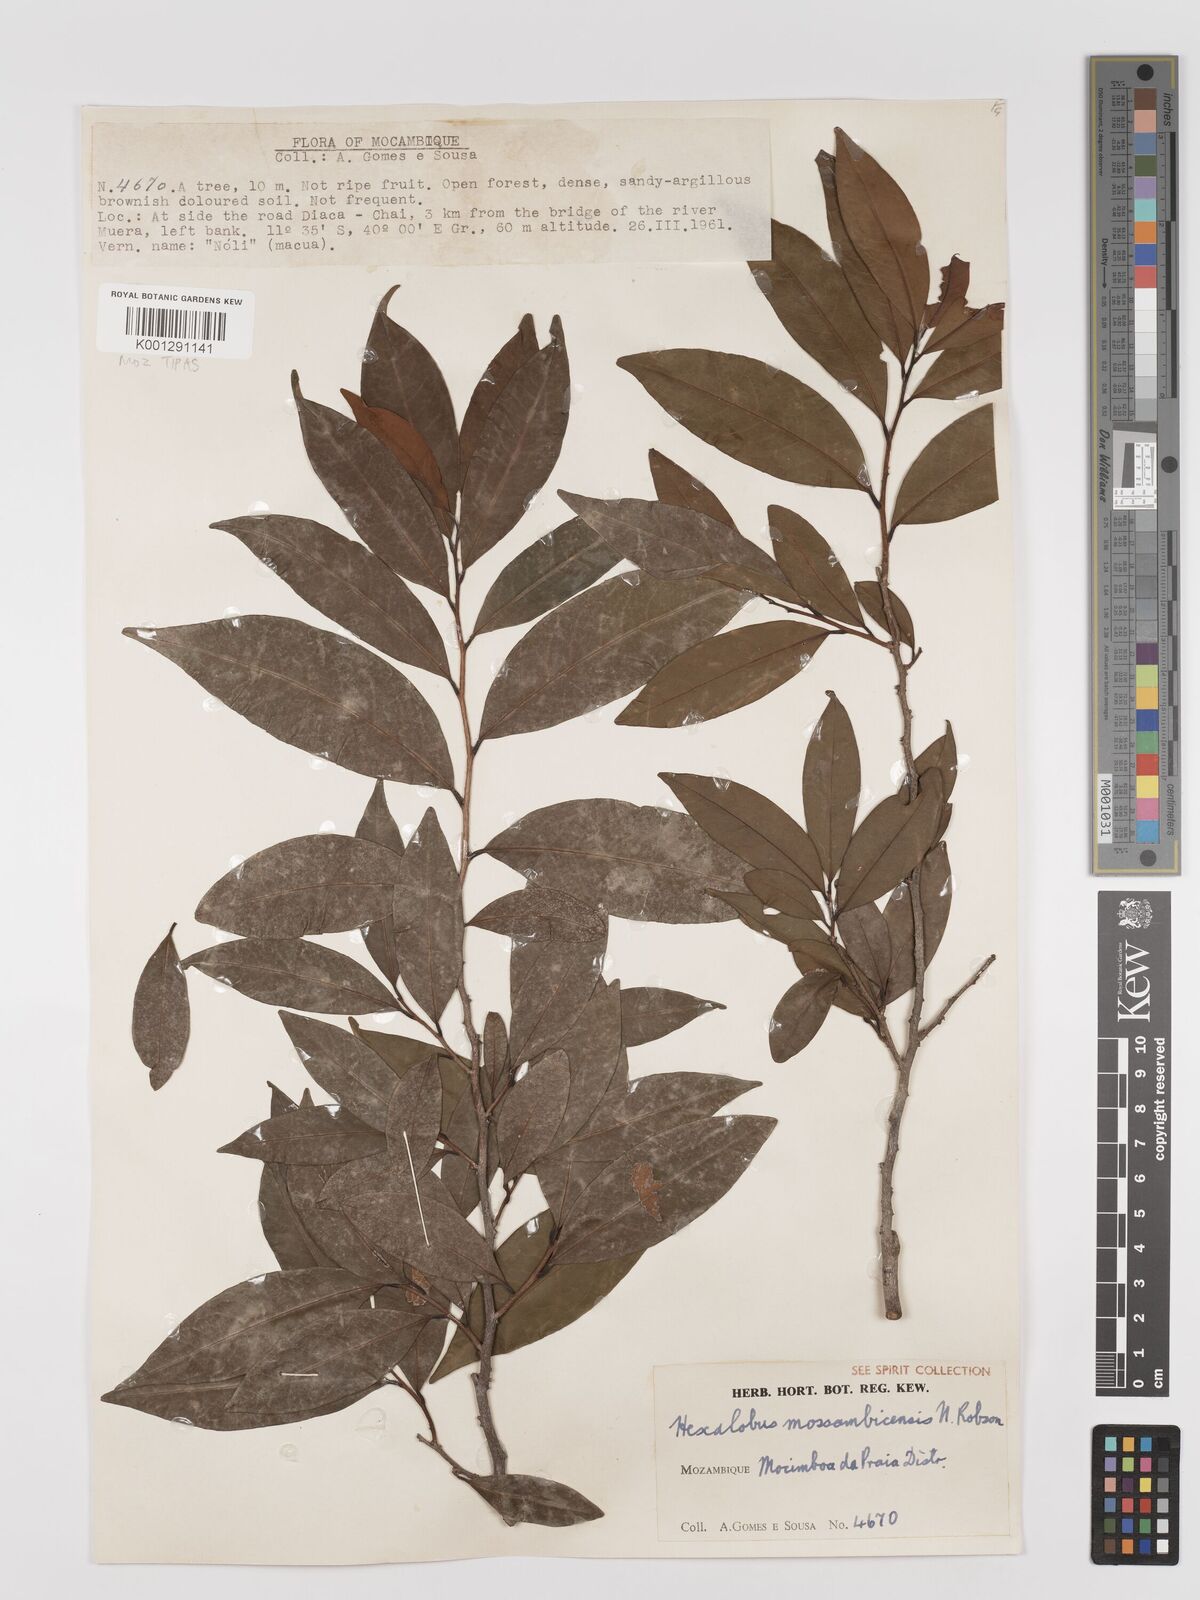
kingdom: Plantae
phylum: Tracheophyta
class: Magnoliopsida
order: Magnoliales
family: Annonaceae
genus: Hexalobus
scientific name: Hexalobus mossambicensis
